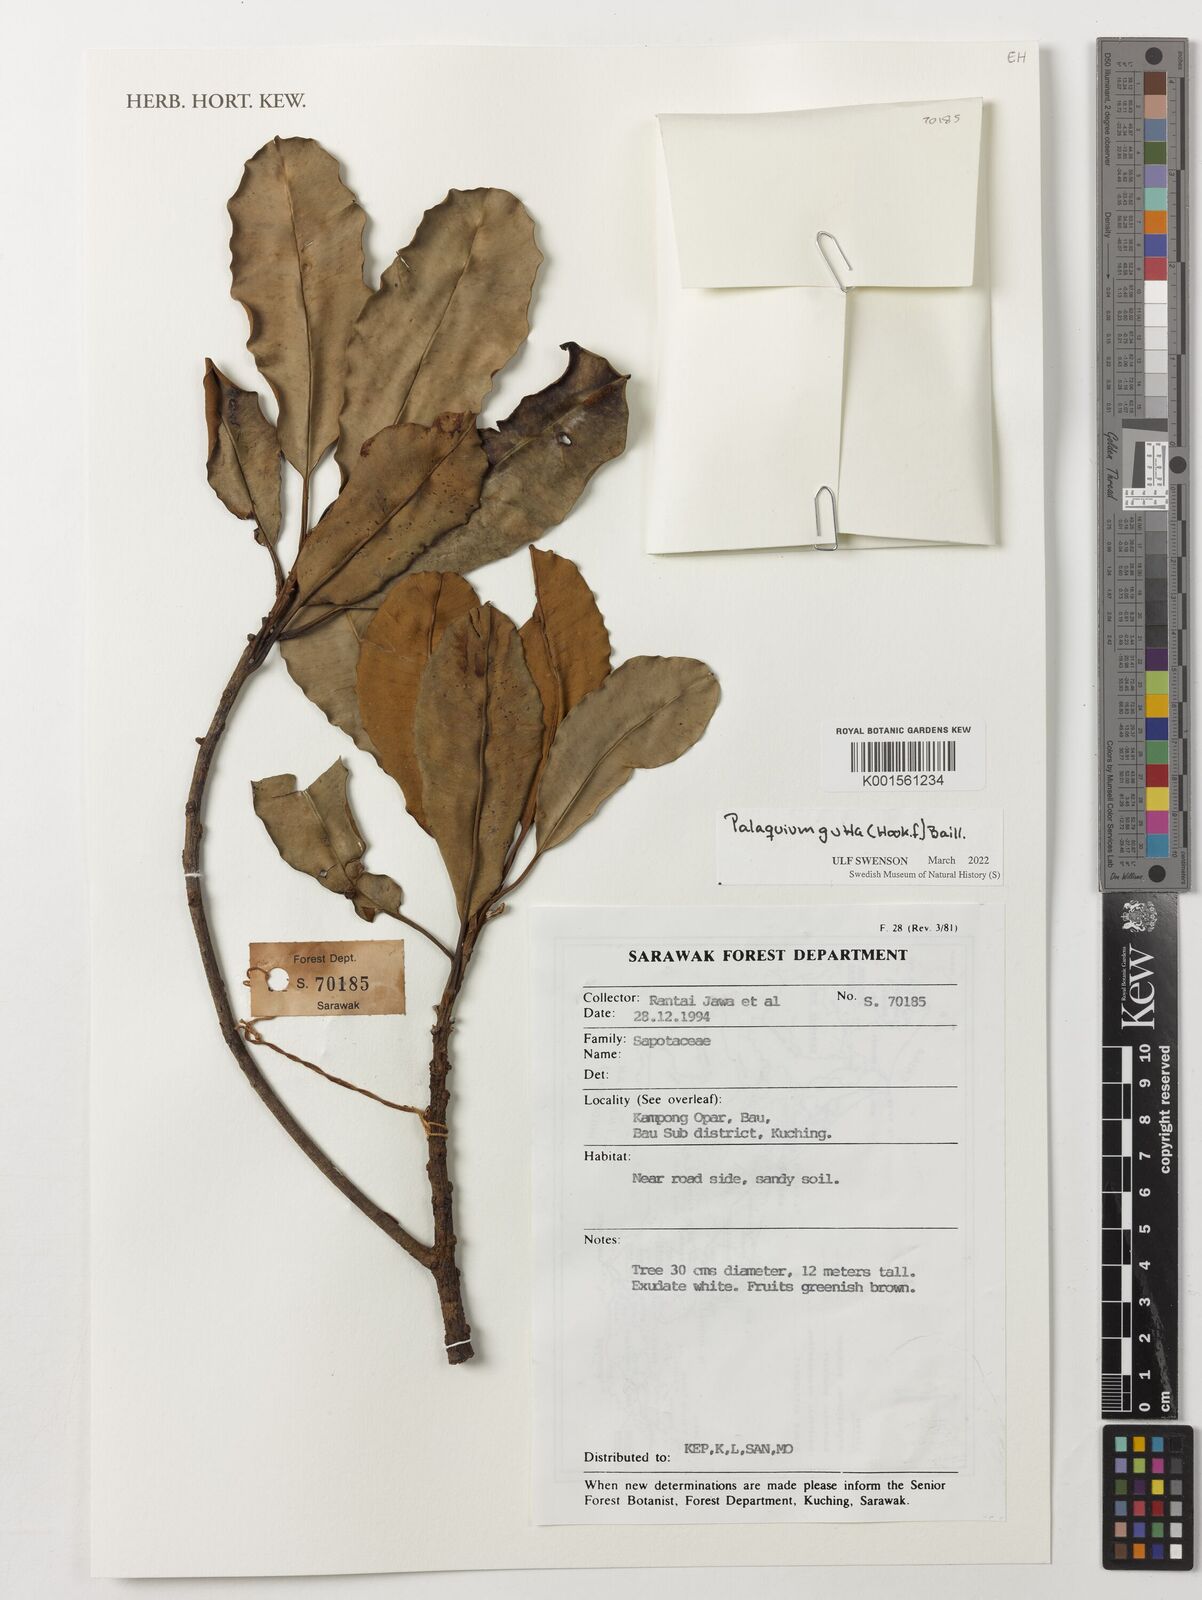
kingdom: Plantae
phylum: Tracheophyta
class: Magnoliopsida
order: Ericales
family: Sapotaceae
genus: Palaquium
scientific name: Palaquium gutta
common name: Gutta-percha-tree
